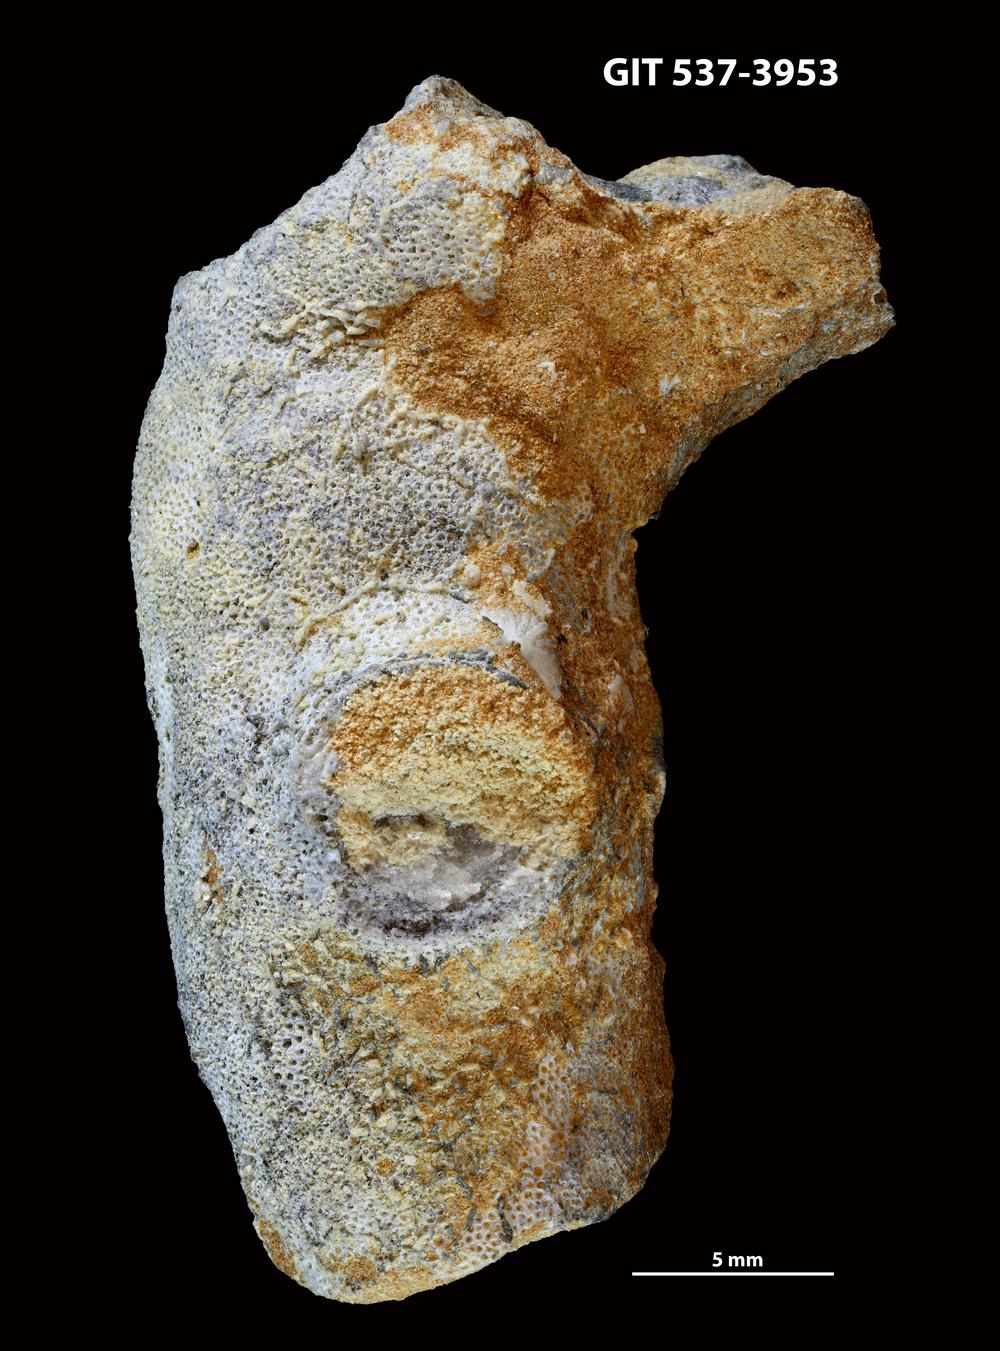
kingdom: Animalia
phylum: Bryozoa
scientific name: Bryozoa
